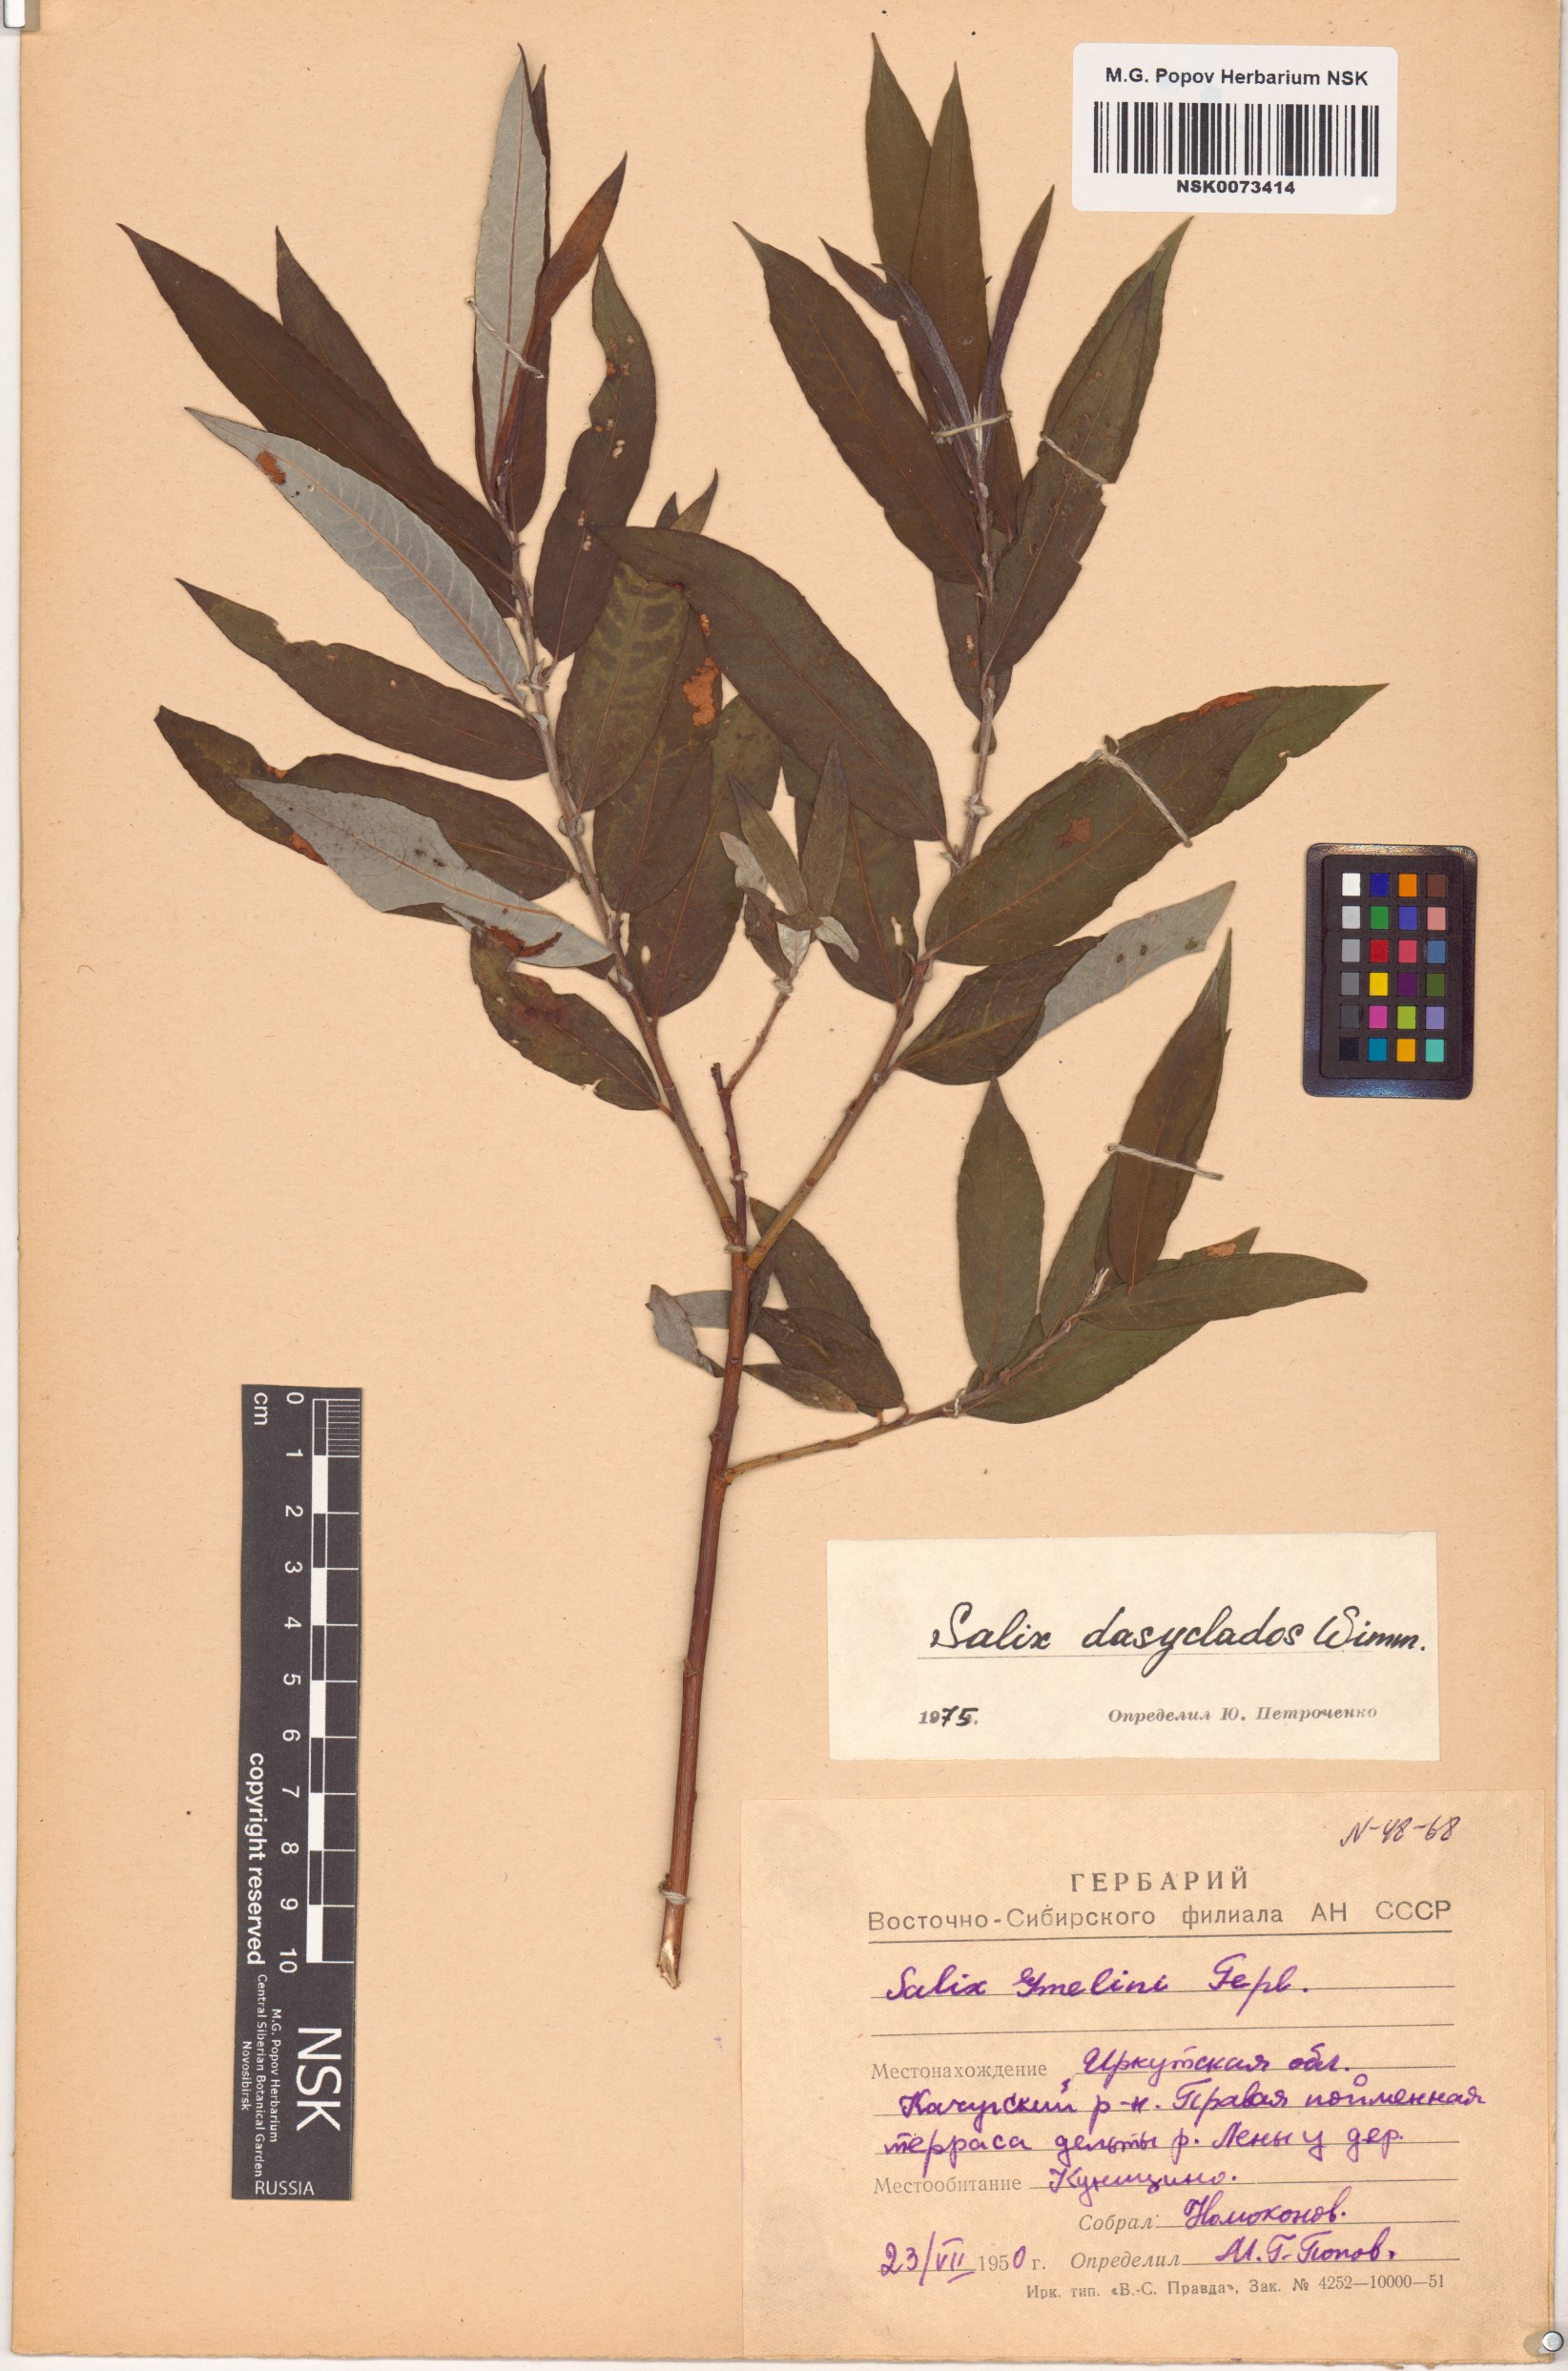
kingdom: Plantae
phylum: Tracheophyta
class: Magnoliopsida
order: Malpighiales
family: Salicaceae
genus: Salix
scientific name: Salix gmelinii
